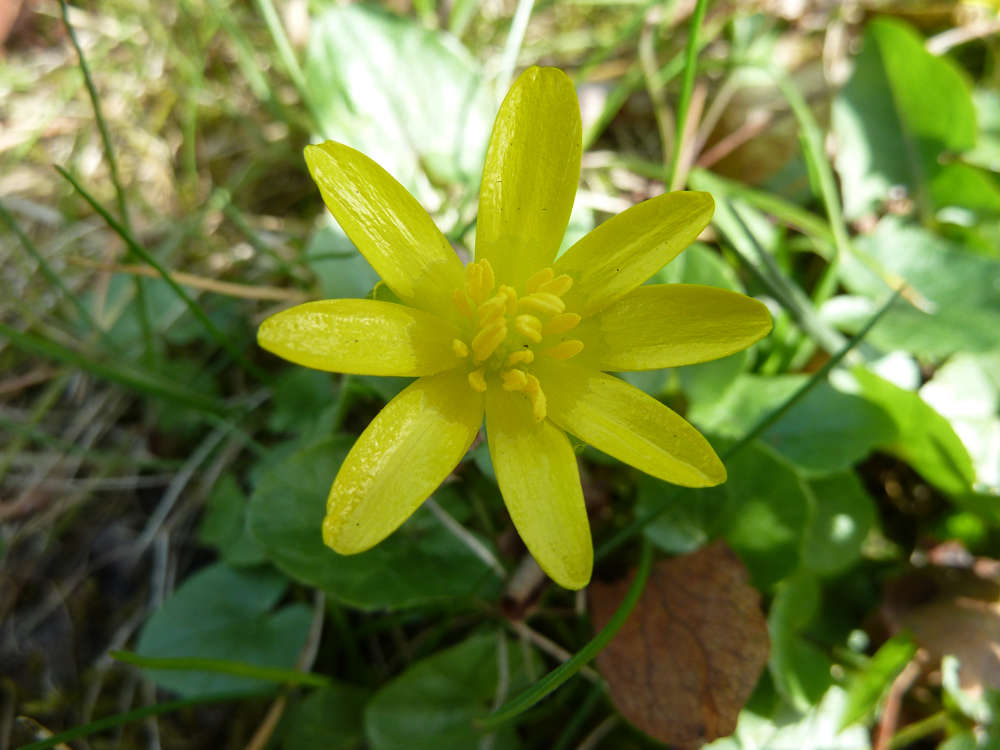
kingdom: Plantae
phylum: Tracheophyta
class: Magnoliopsida
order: Ranunculales
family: Ranunculaceae
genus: Ficaria
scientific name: Ficaria verna
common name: Lesser celandine
